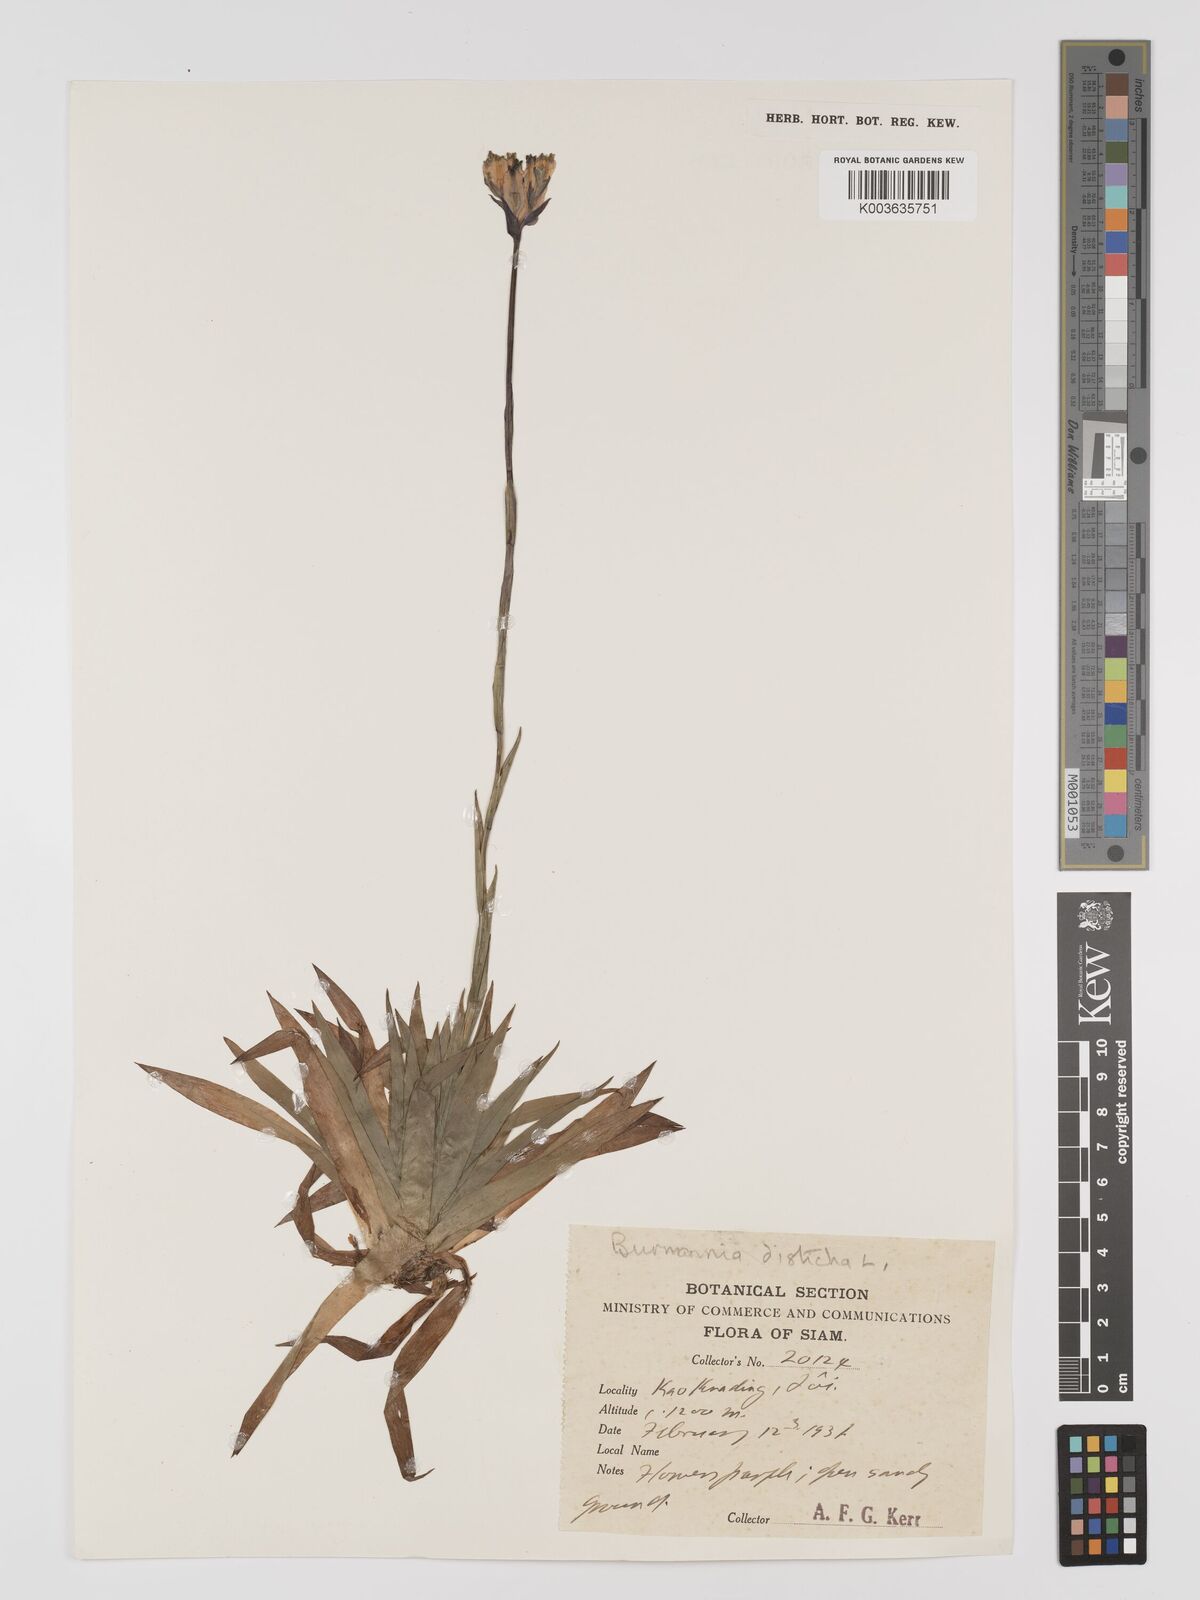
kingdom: Plantae
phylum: Tracheophyta
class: Liliopsida
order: Dioscoreales
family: Burmanniaceae
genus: Burmannia
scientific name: Burmannia disticha
